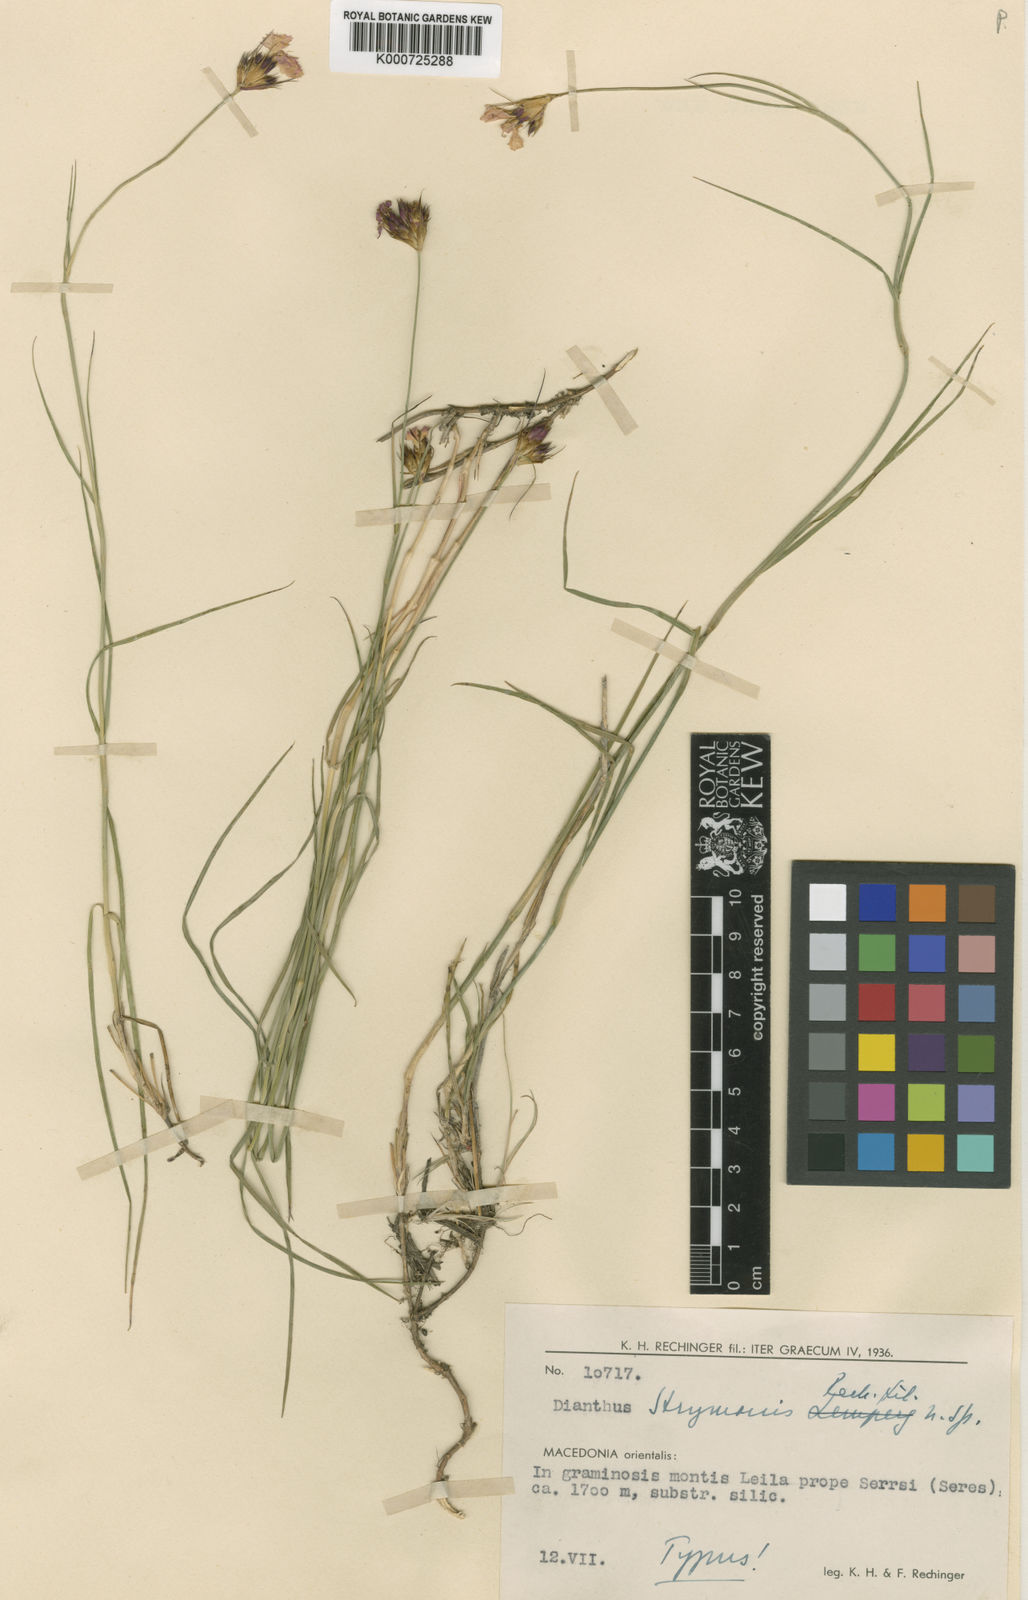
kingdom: Plantae
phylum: Tracheophyta
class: Magnoliopsida
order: Caryophyllales
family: Caryophyllaceae
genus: Dianthus
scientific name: Dianthus strymonis
